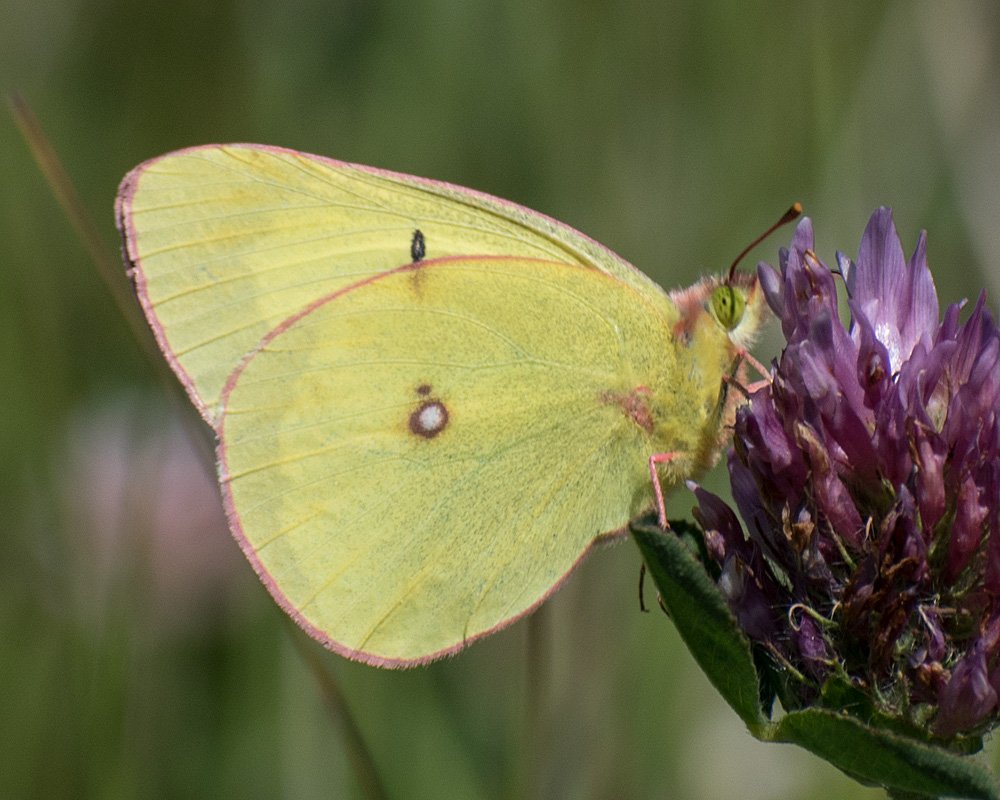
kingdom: Animalia
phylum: Arthropoda
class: Insecta
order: Lepidoptera
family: Pieridae
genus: Colias
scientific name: Colias gigantea
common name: Giant Sulphur
